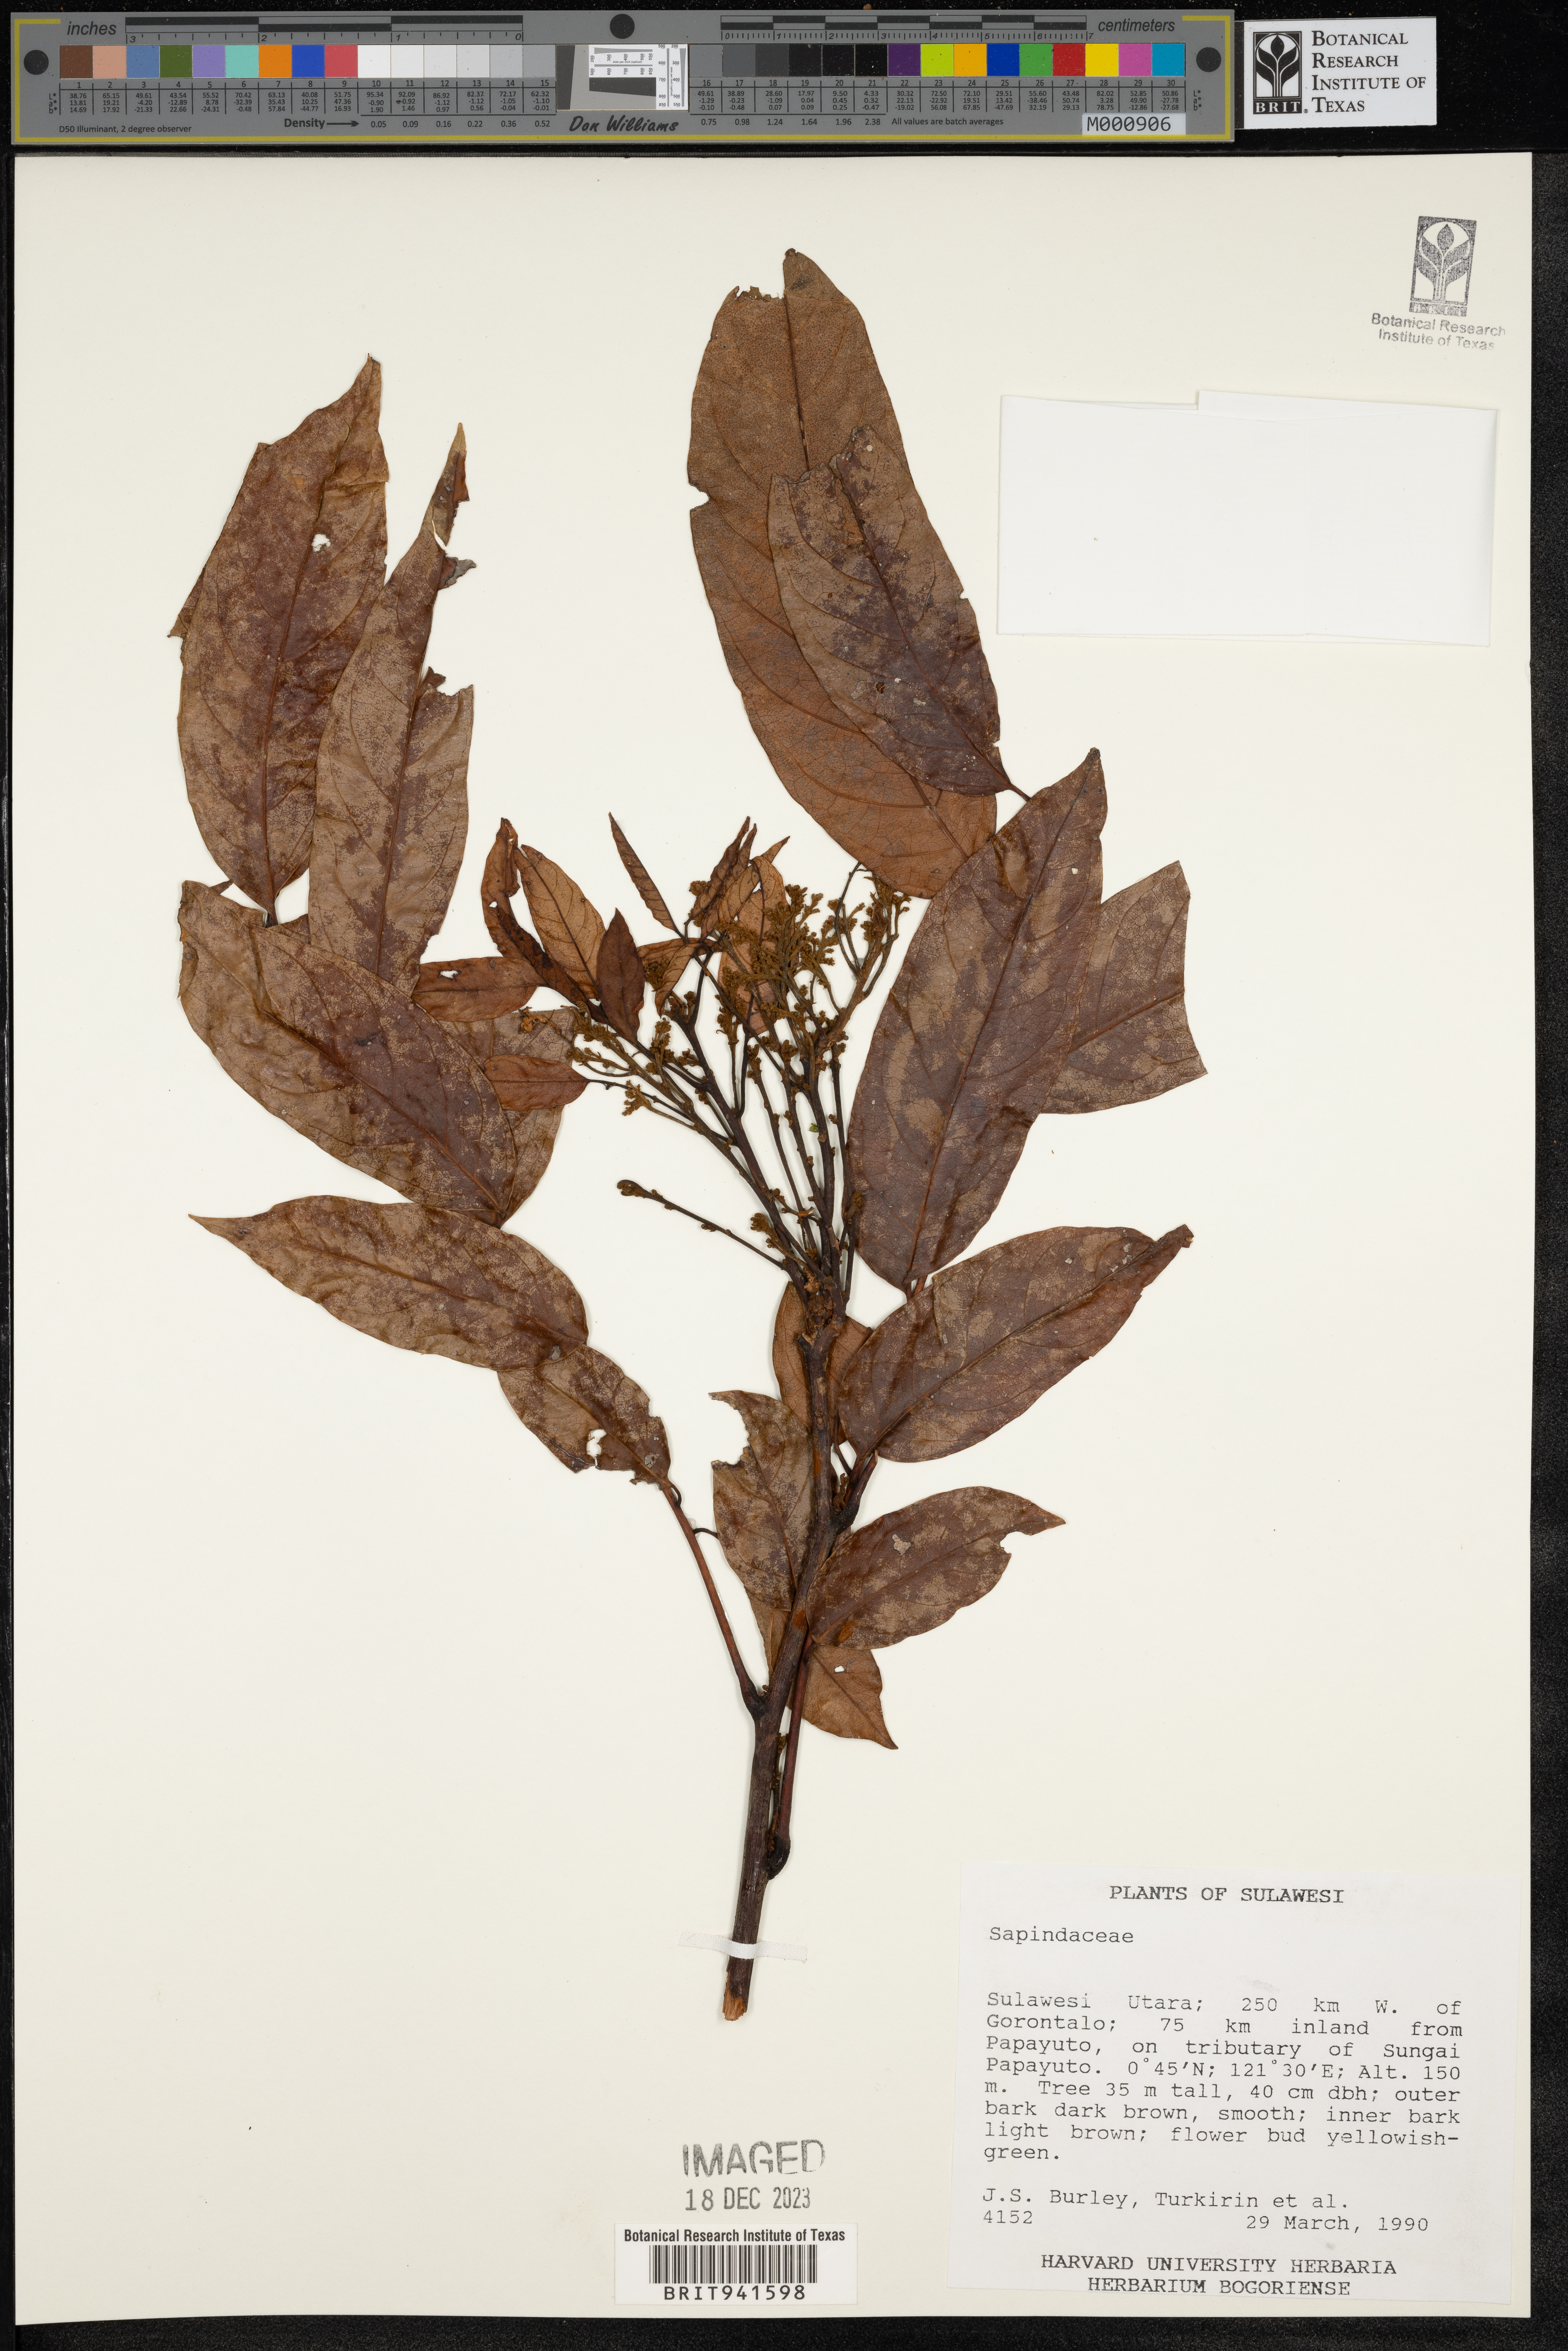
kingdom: Plantae
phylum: Tracheophyta
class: Magnoliopsida
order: Sapindales
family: Sapindaceae
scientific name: Sapindaceae
